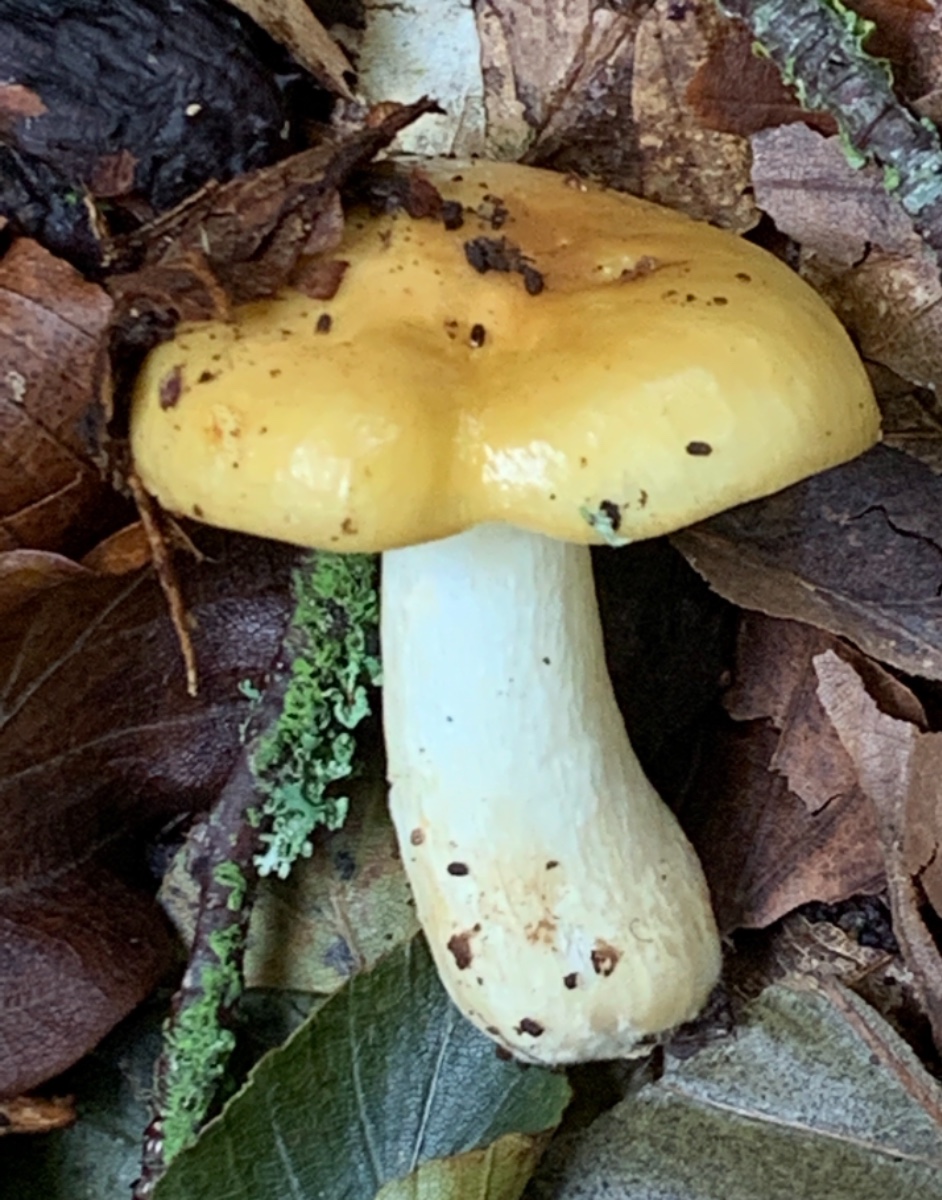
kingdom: Fungi
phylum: Basidiomycota
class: Agaricomycetes
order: Russulales
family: Russulaceae
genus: Russula
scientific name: Russula ochroleuca
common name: okkergul skørhat
